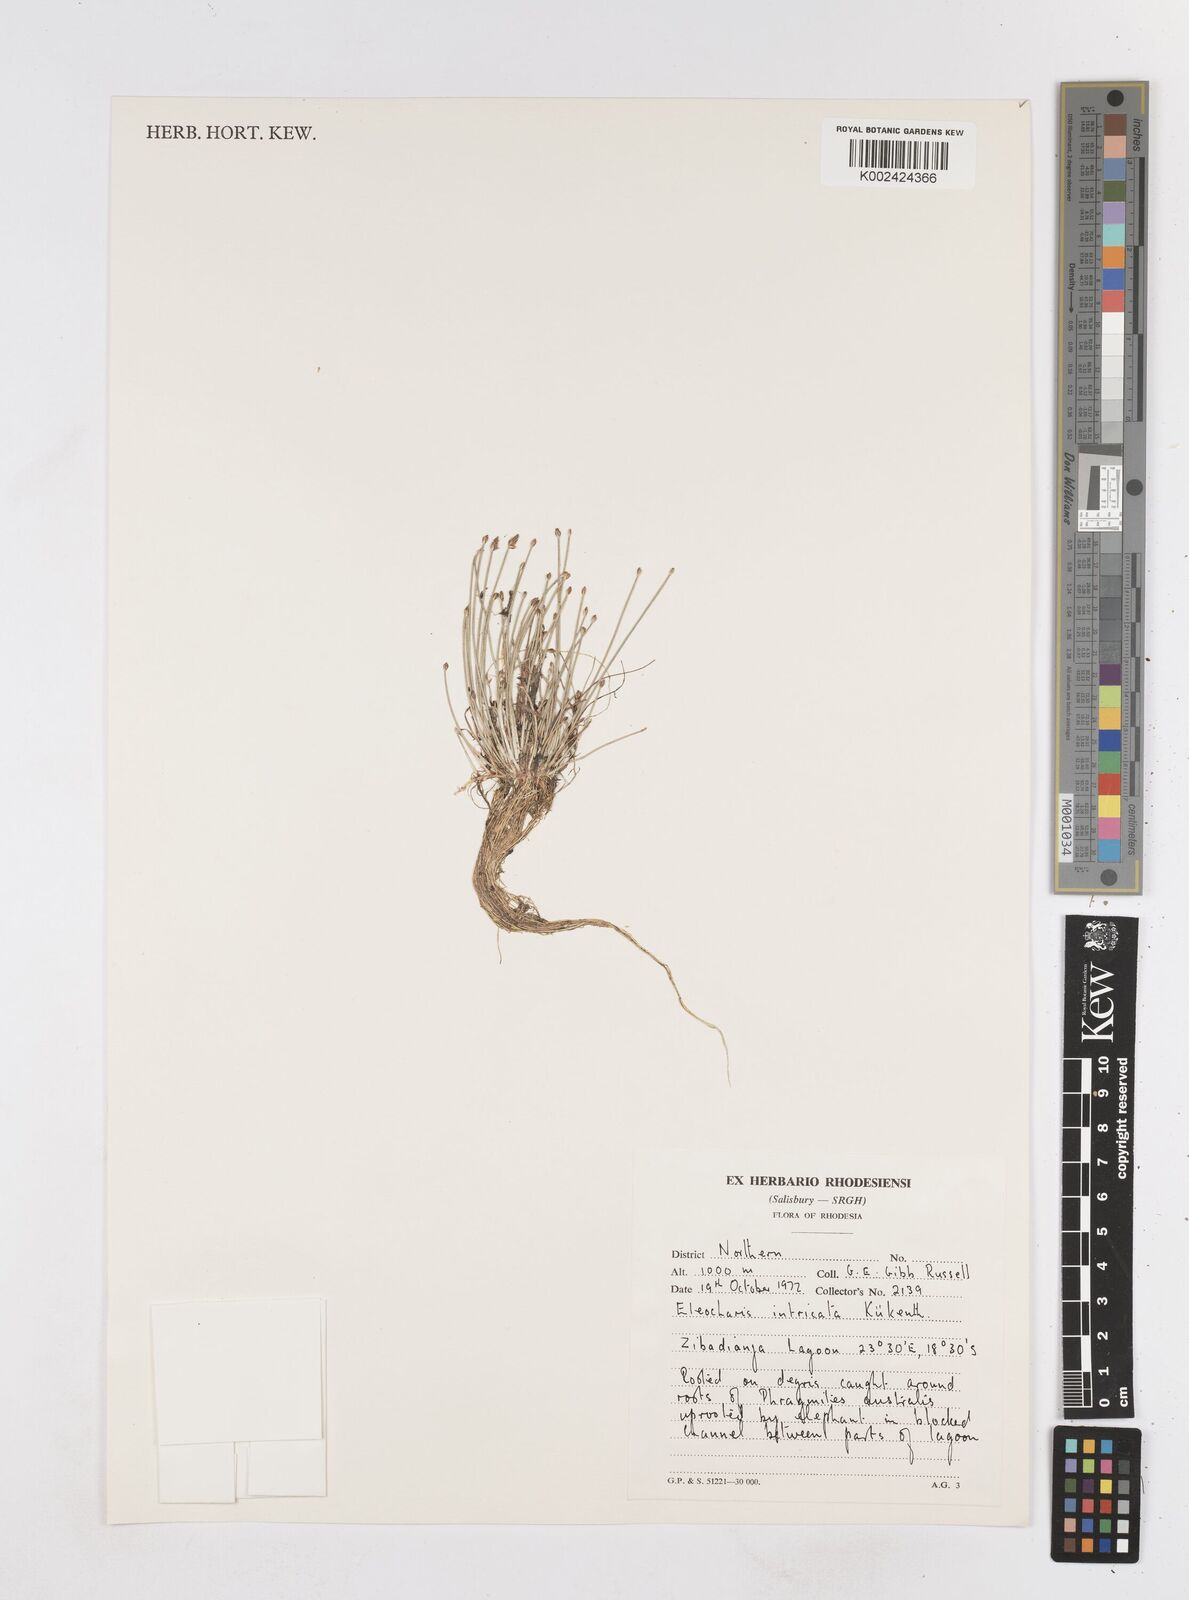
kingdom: Plantae
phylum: Tracheophyta
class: Liliopsida
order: Poales
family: Cyperaceae
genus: Eleocharis
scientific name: Eleocharis caduca
